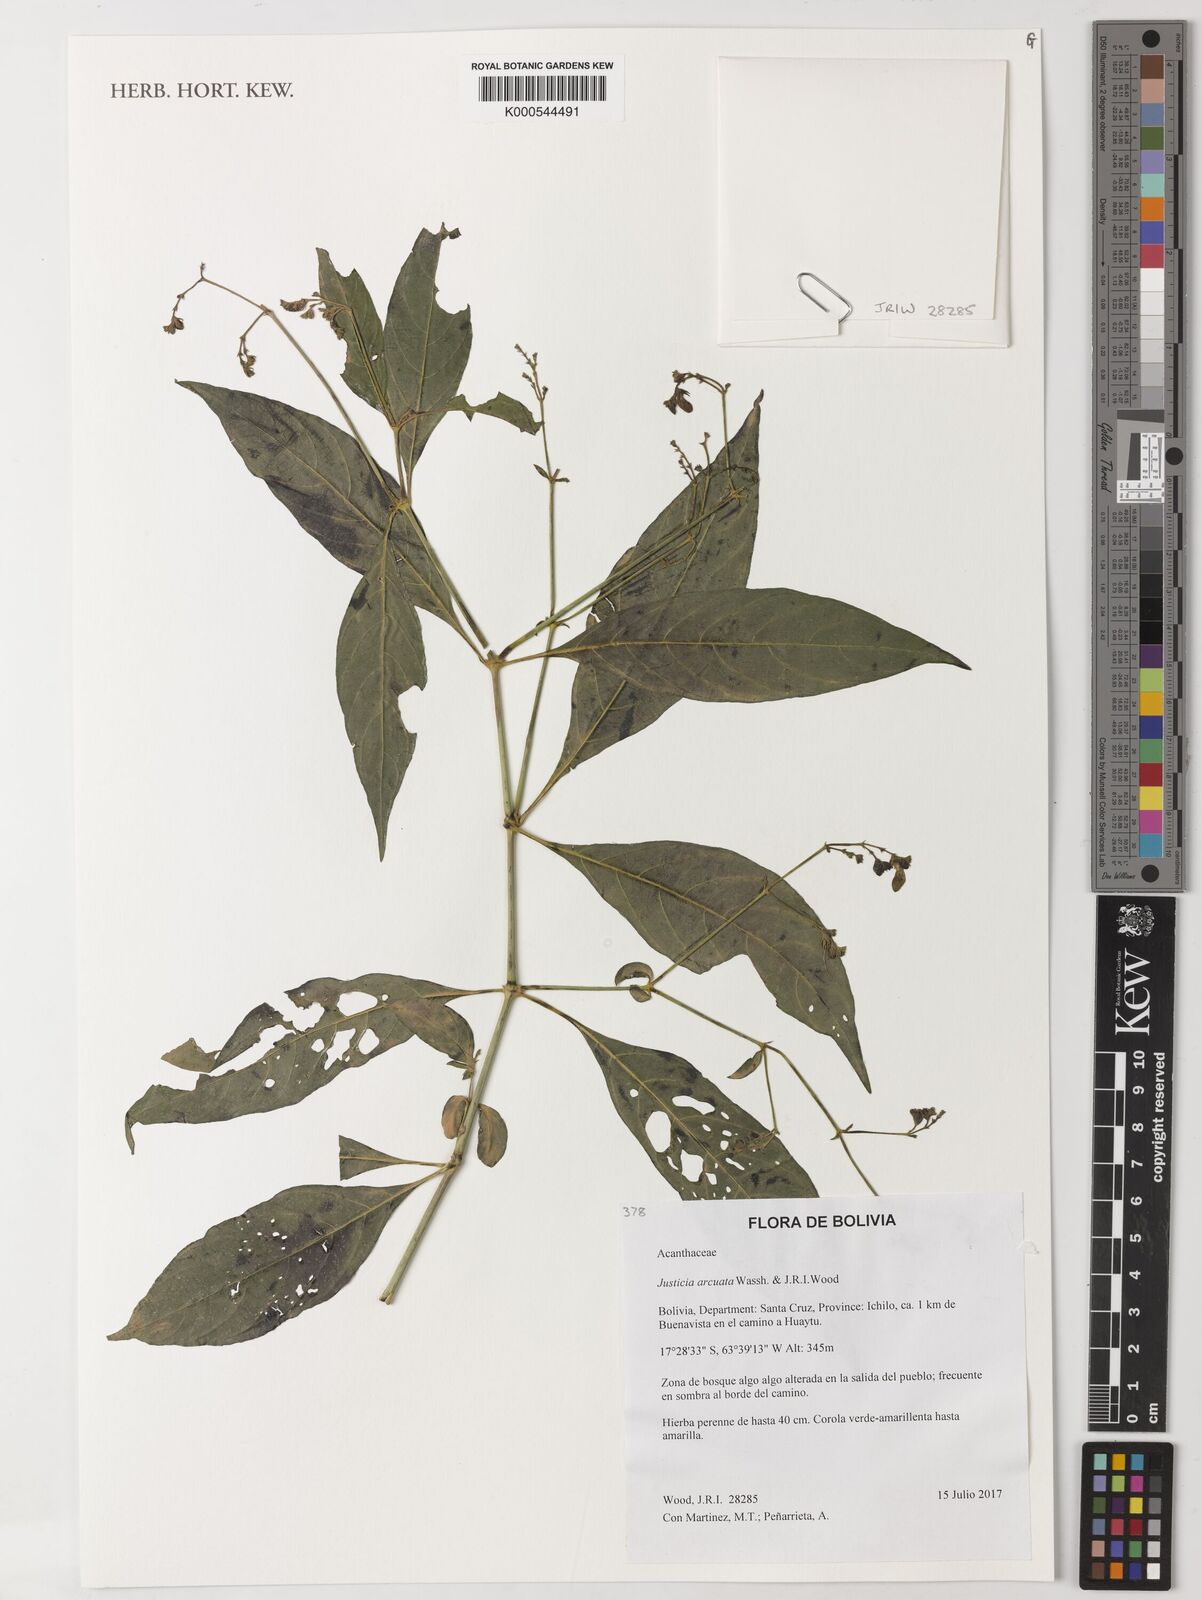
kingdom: Plantae
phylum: Tracheophyta
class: Magnoliopsida
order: Lamiales
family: Acanthaceae
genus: Justicia
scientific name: Justicia arcuata
